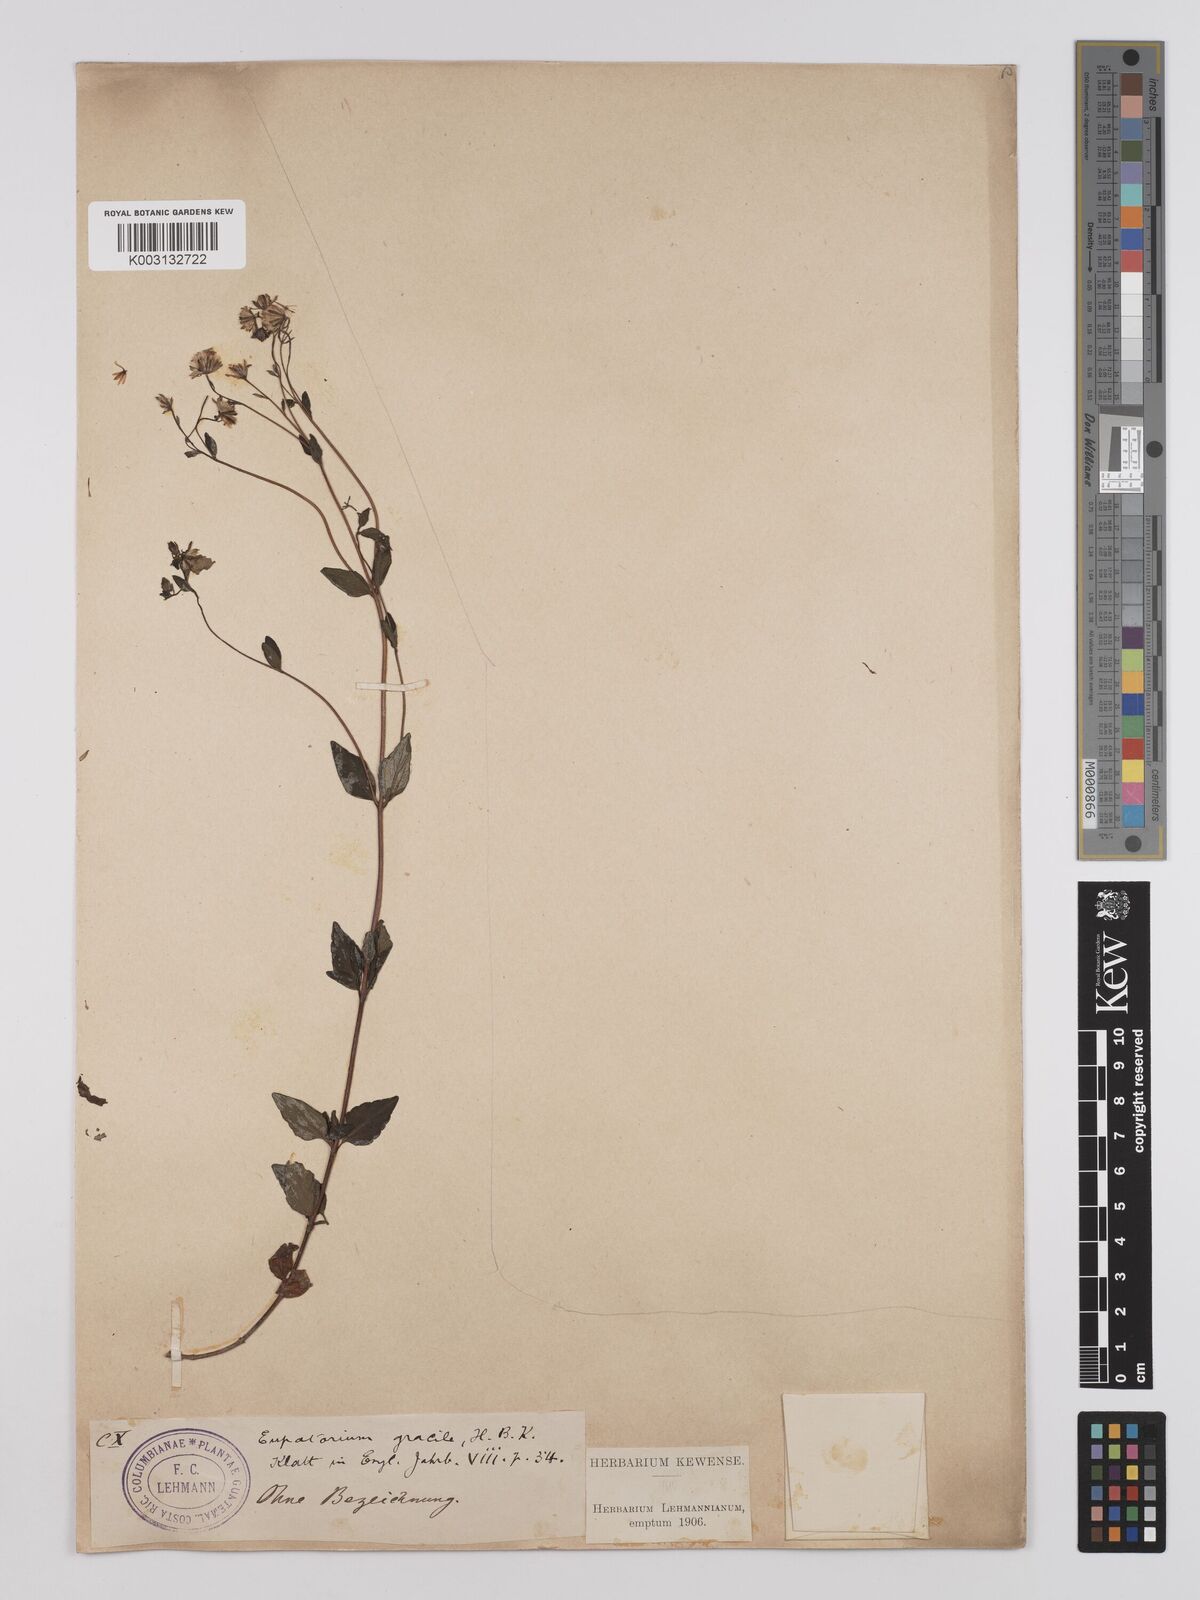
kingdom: Plantae
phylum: Tracheophyta
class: Magnoliopsida
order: Asterales
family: Asteraceae
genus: Ageratina
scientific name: Ageratina gracilis
